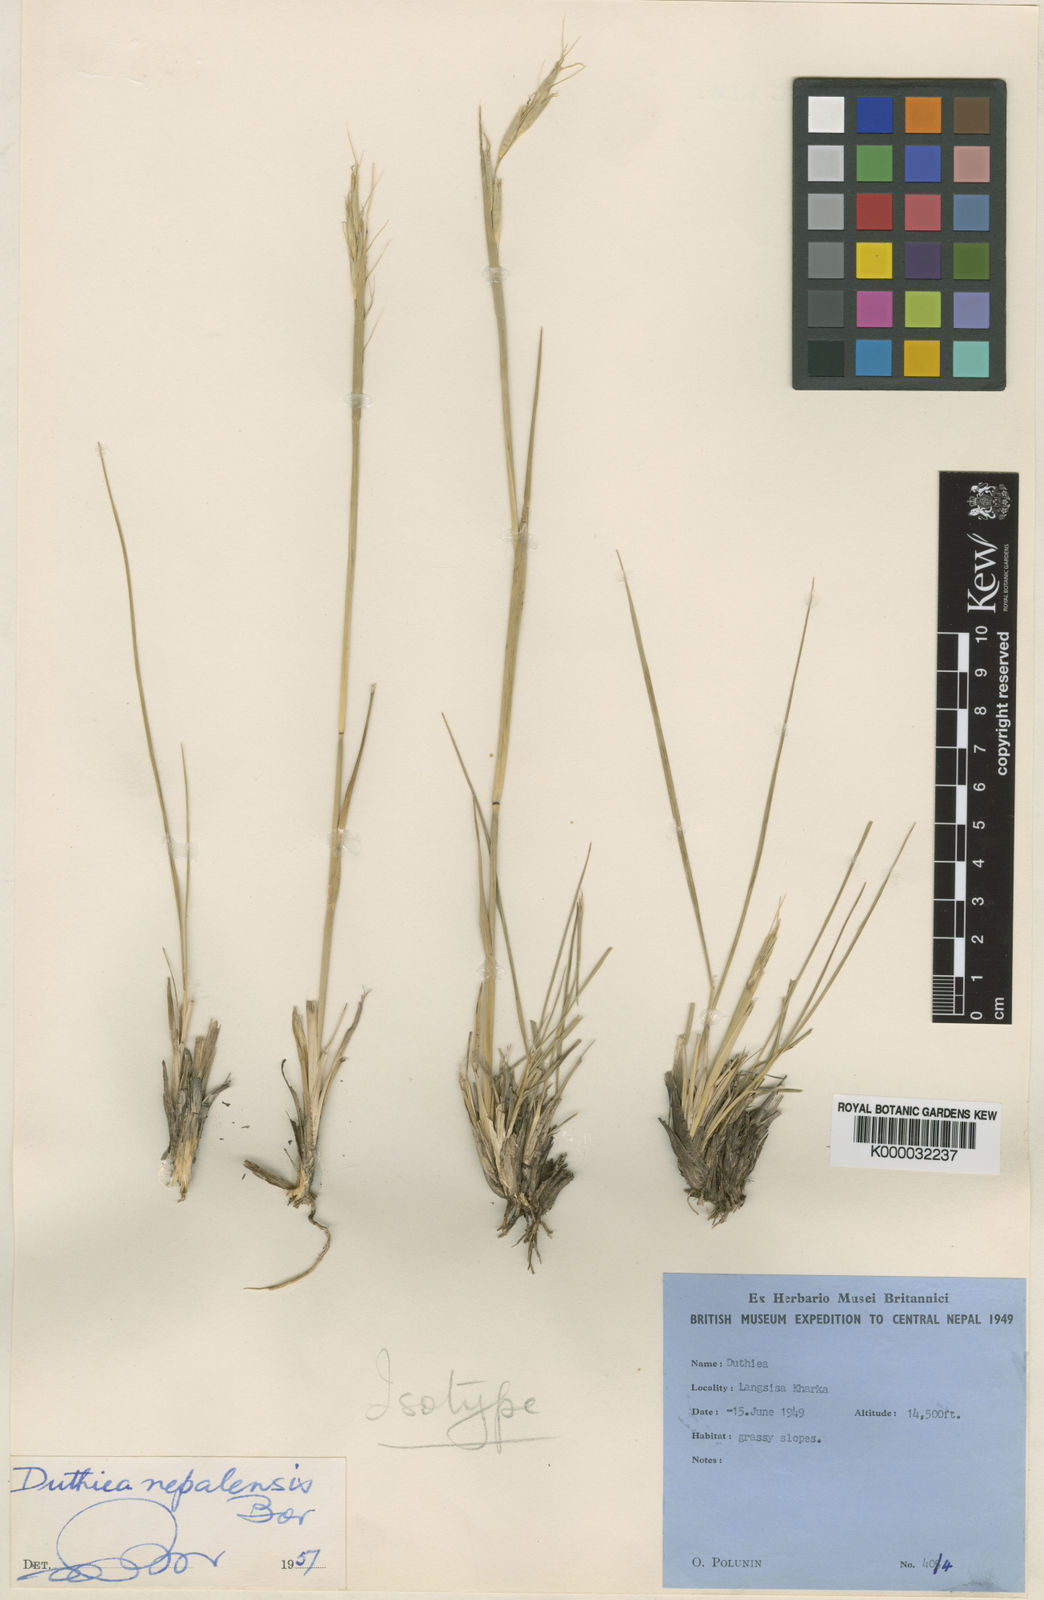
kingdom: Plantae
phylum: Tracheophyta
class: Liliopsida
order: Poales
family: Poaceae
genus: Duthiea
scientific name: Duthiea brachypodium
